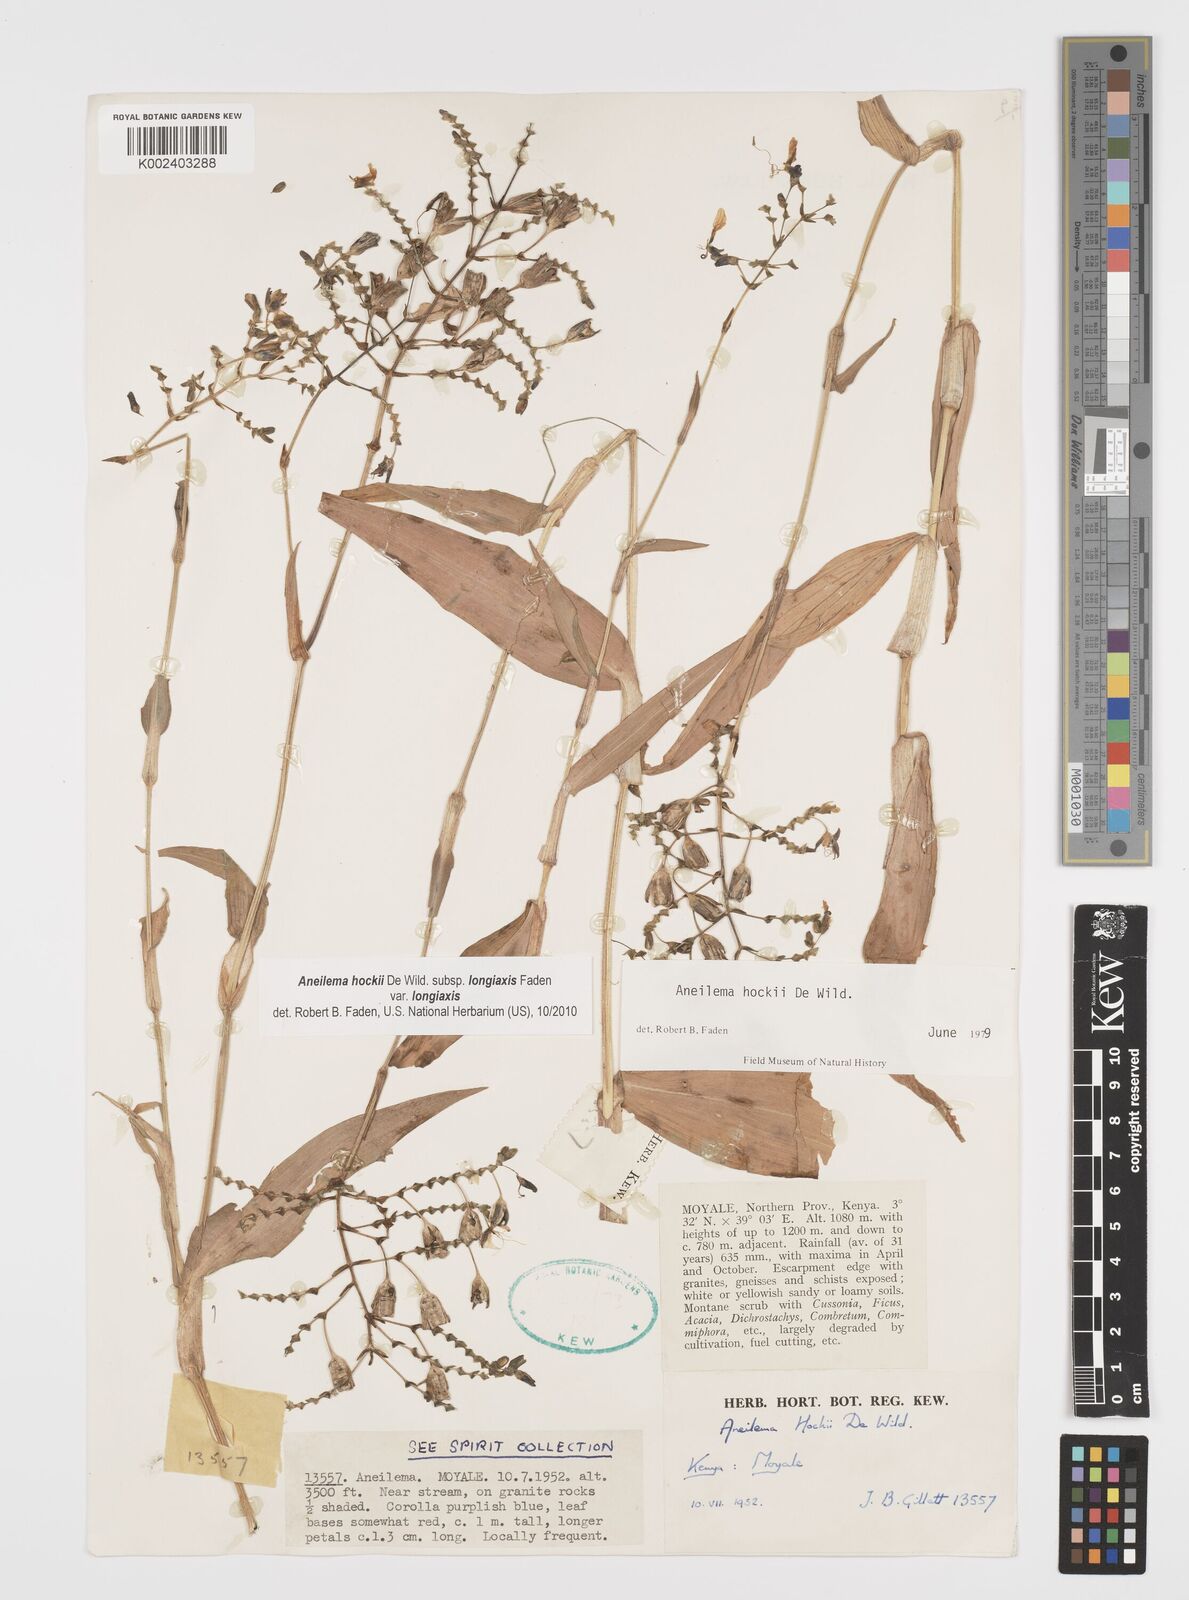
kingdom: Plantae
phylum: Tracheophyta
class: Liliopsida
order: Commelinales
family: Commelinaceae
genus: Aneilema
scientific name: Aneilema hockii
